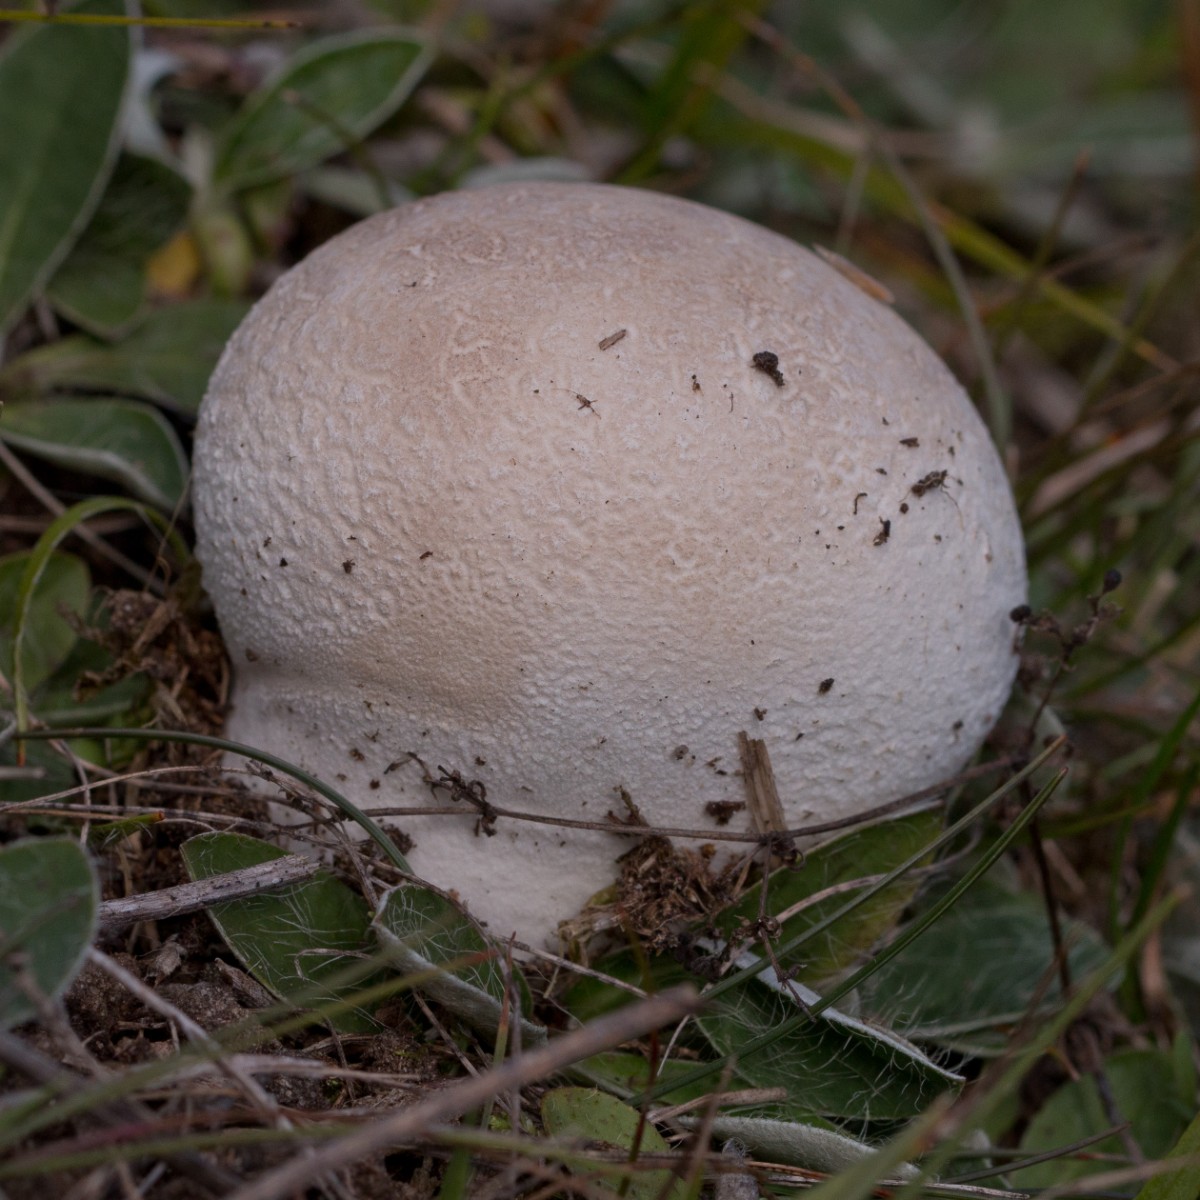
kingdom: Fungi
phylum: Basidiomycota
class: Agaricomycetes
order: Agaricales
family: Lycoperdaceae
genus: Bovistella
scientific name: Bovistella utriformis
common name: skællet støvbold
